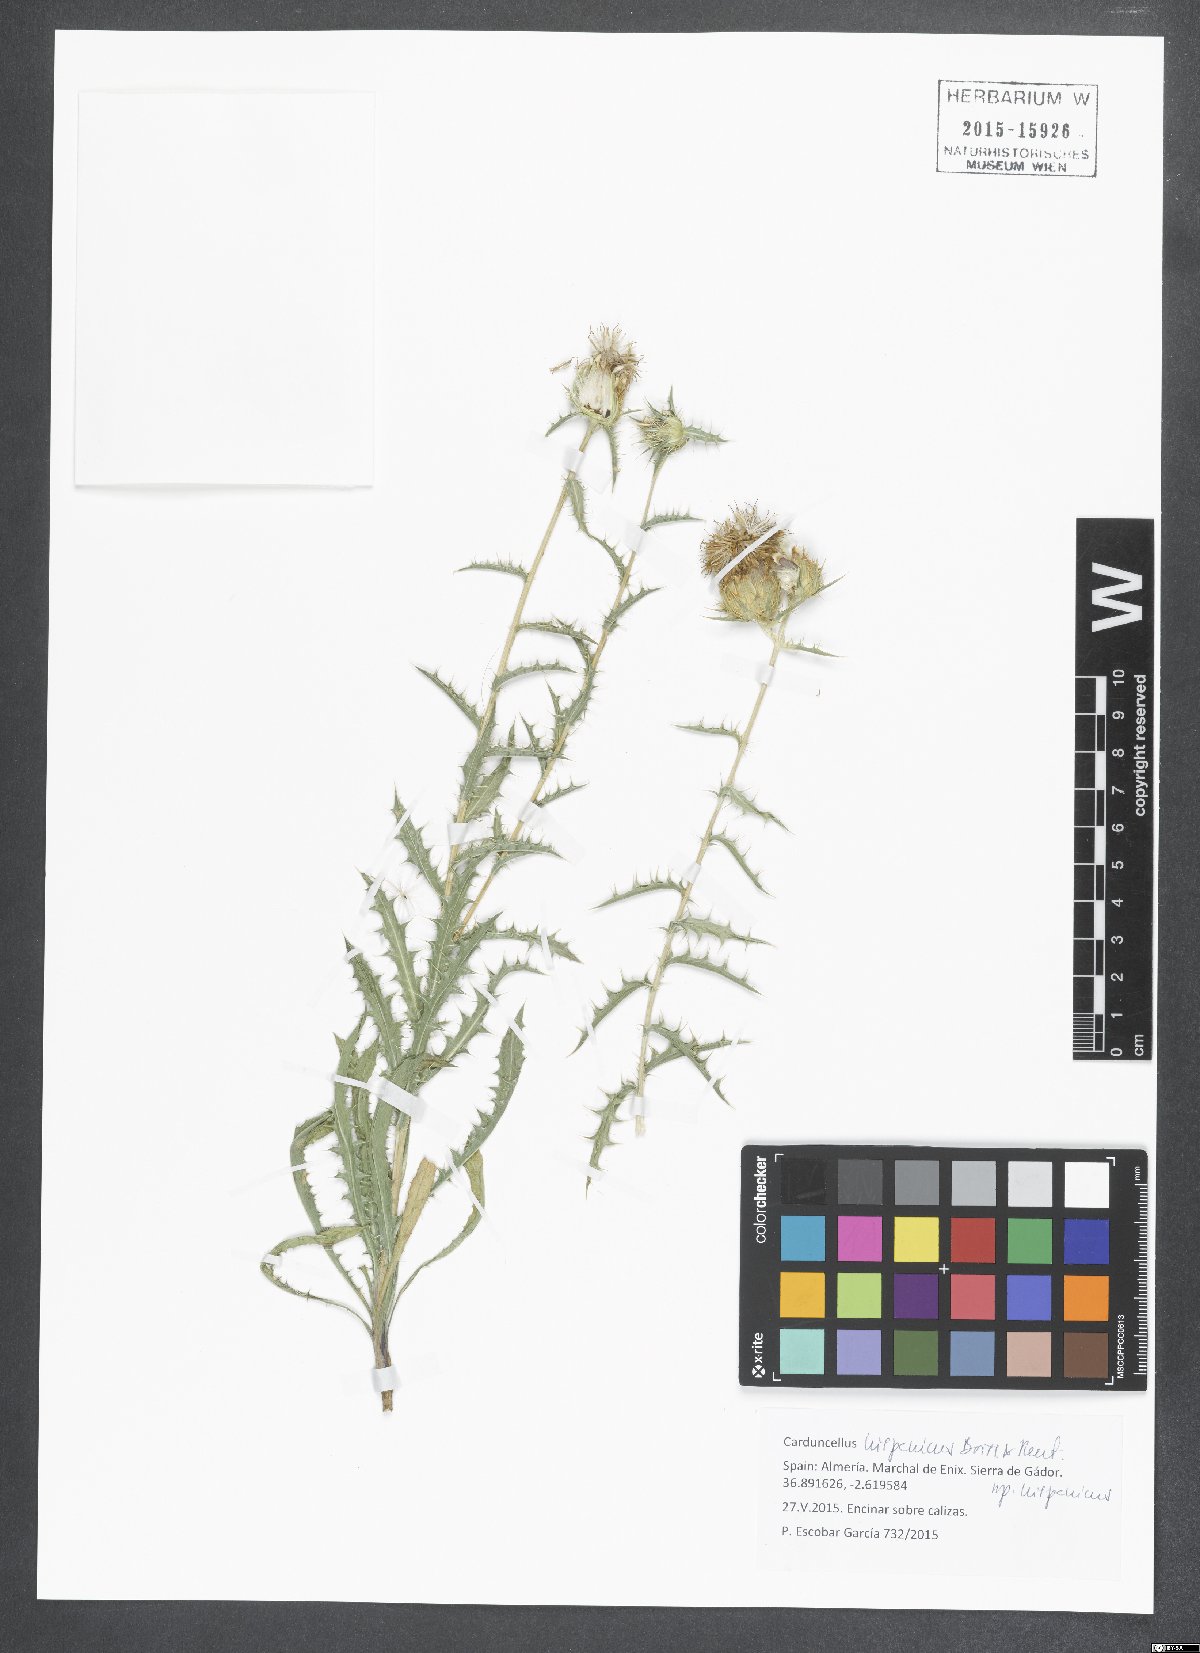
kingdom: Plantae
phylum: Tracheophyta
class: Magnoliopsida
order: Asterales
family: Asteraceae
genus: Carduncellus
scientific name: Carduncellus hispanicus
